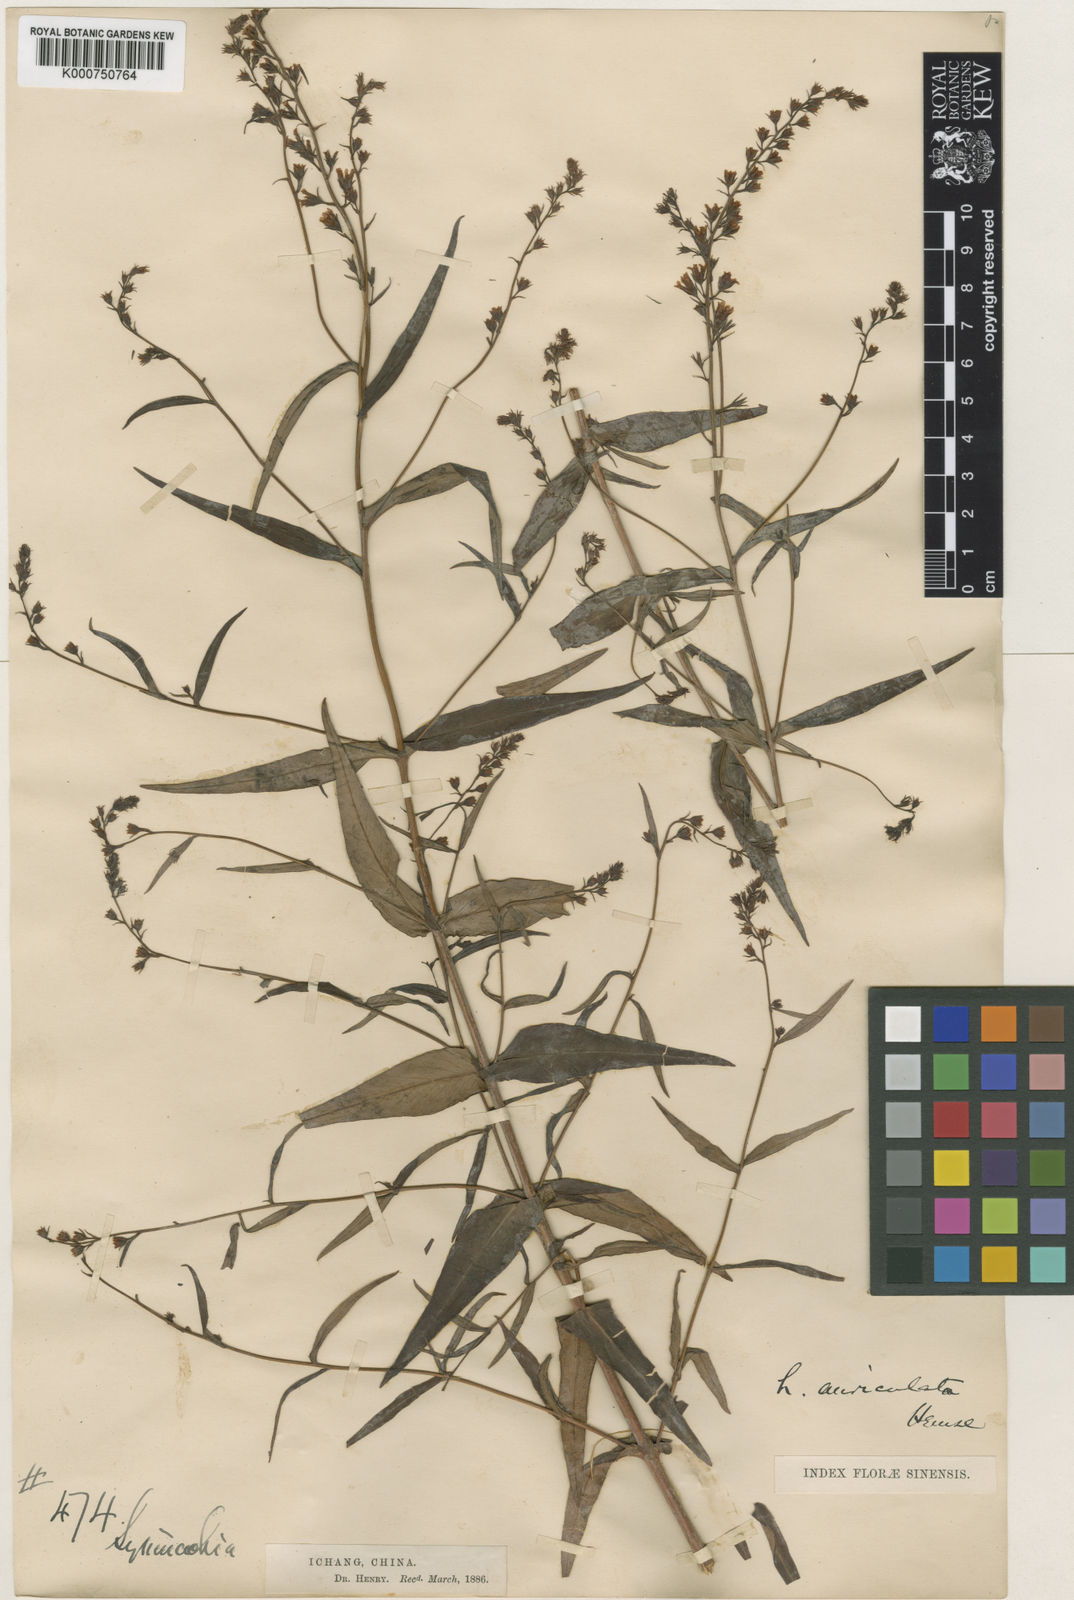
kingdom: Plantae
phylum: Tracheophyta
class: Magnoliopsida
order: Ericales
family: Primulaceae
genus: Lysimachia
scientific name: Lysimachia auriculata
